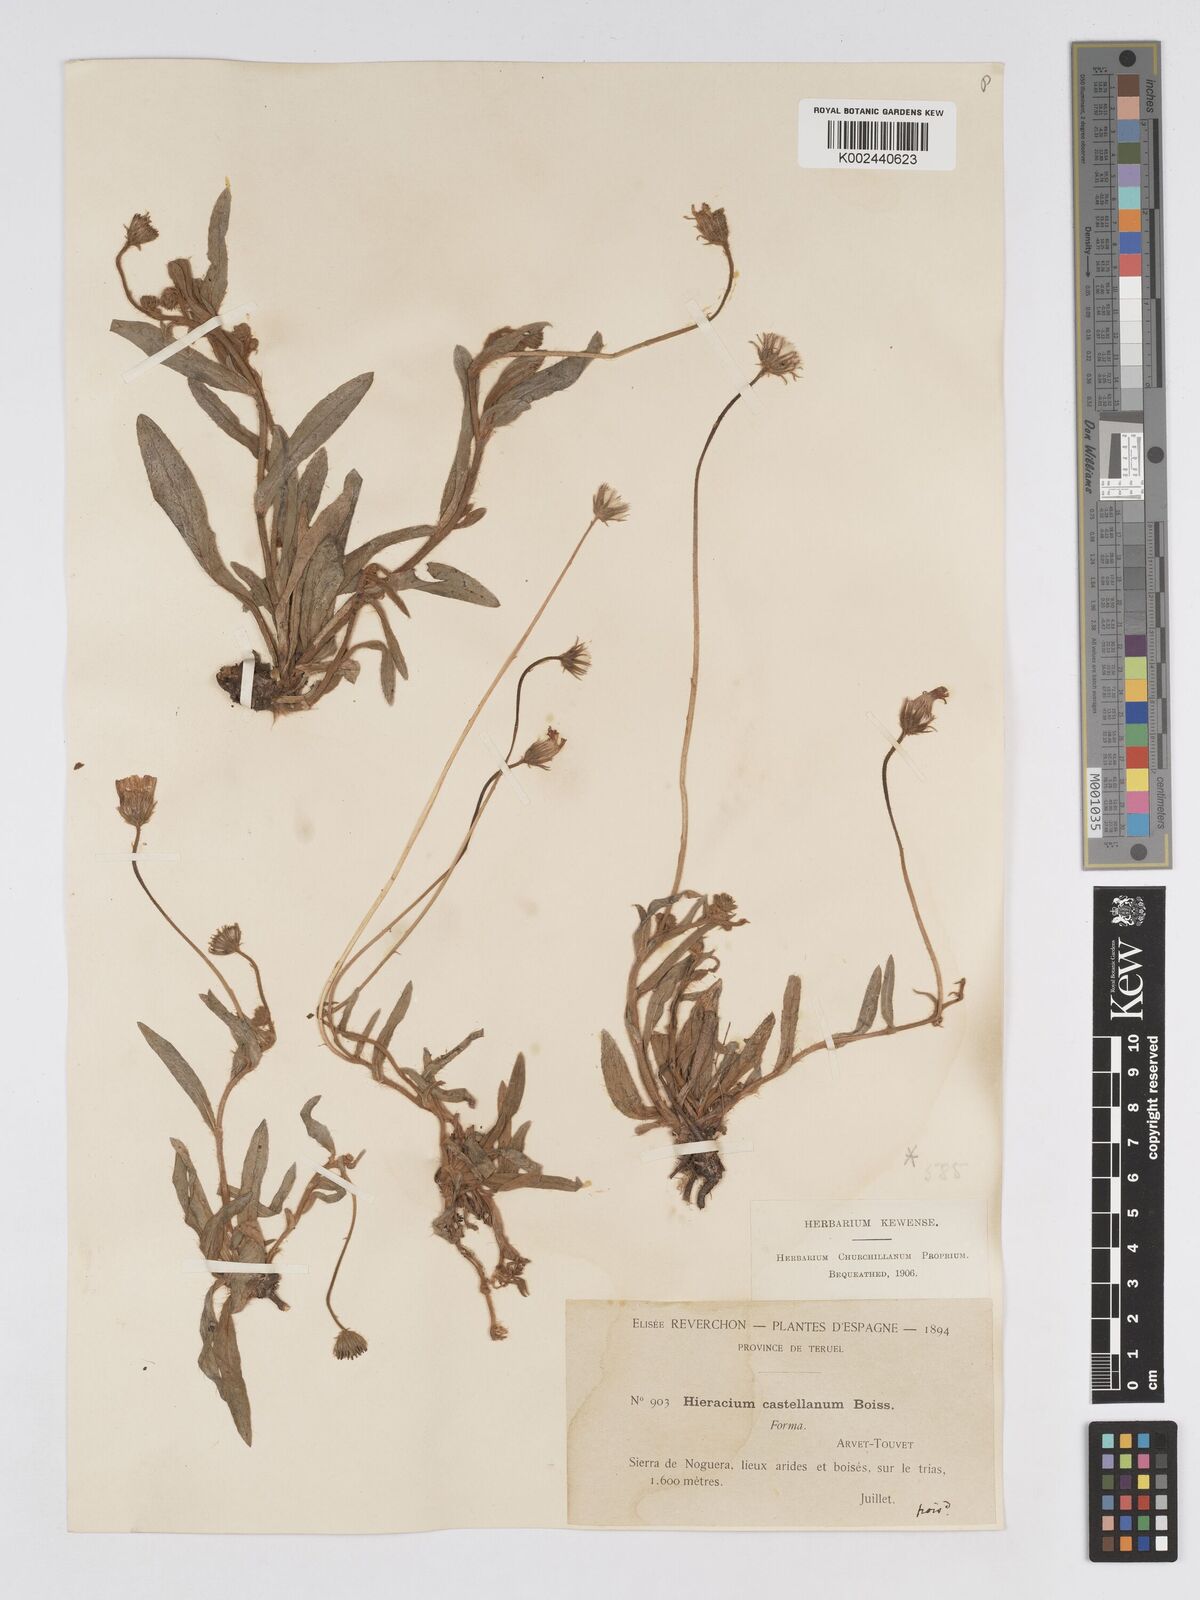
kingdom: Plantae
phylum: Tracheophyta
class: Magnoliopsida
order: Asterales
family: Asteraceae
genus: Pilosella
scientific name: Pilosella castellana
